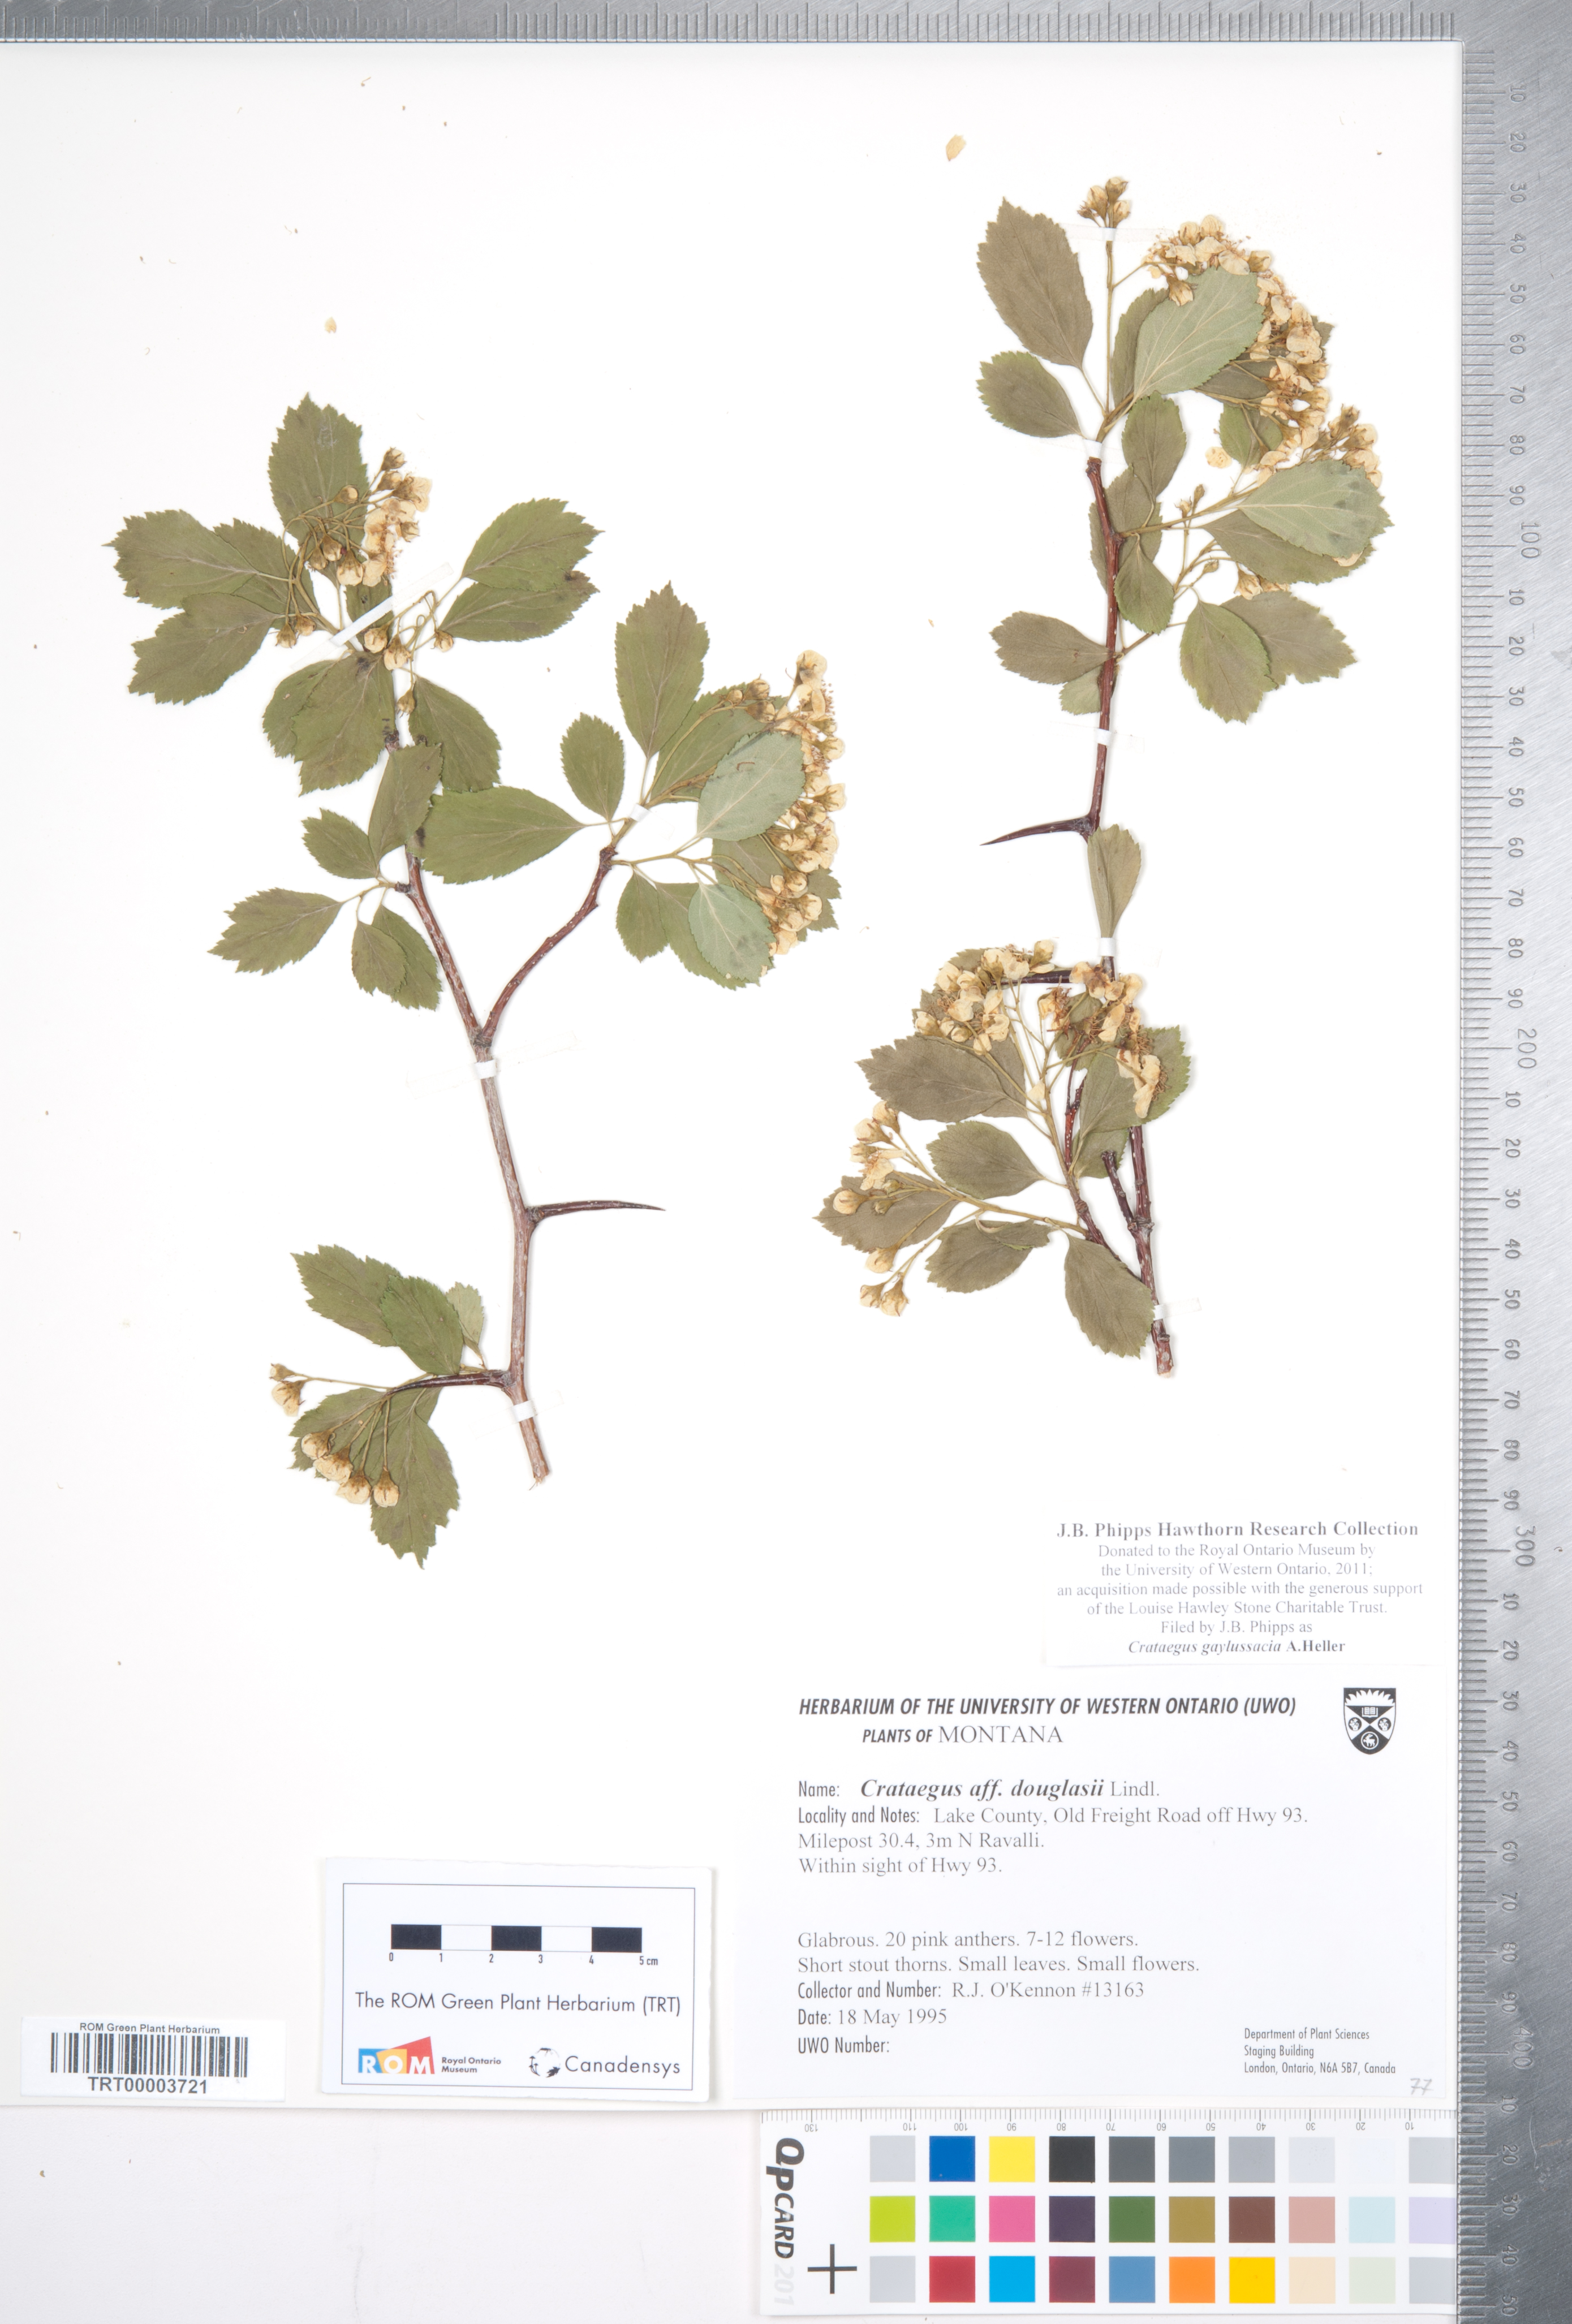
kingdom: Plantae
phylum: Tracheophyta
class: Magnoliopsida
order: Rosales
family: Rosaceae
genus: Crataegus
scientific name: Crataegus gaylussacia
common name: Huckleberry hawthorn
